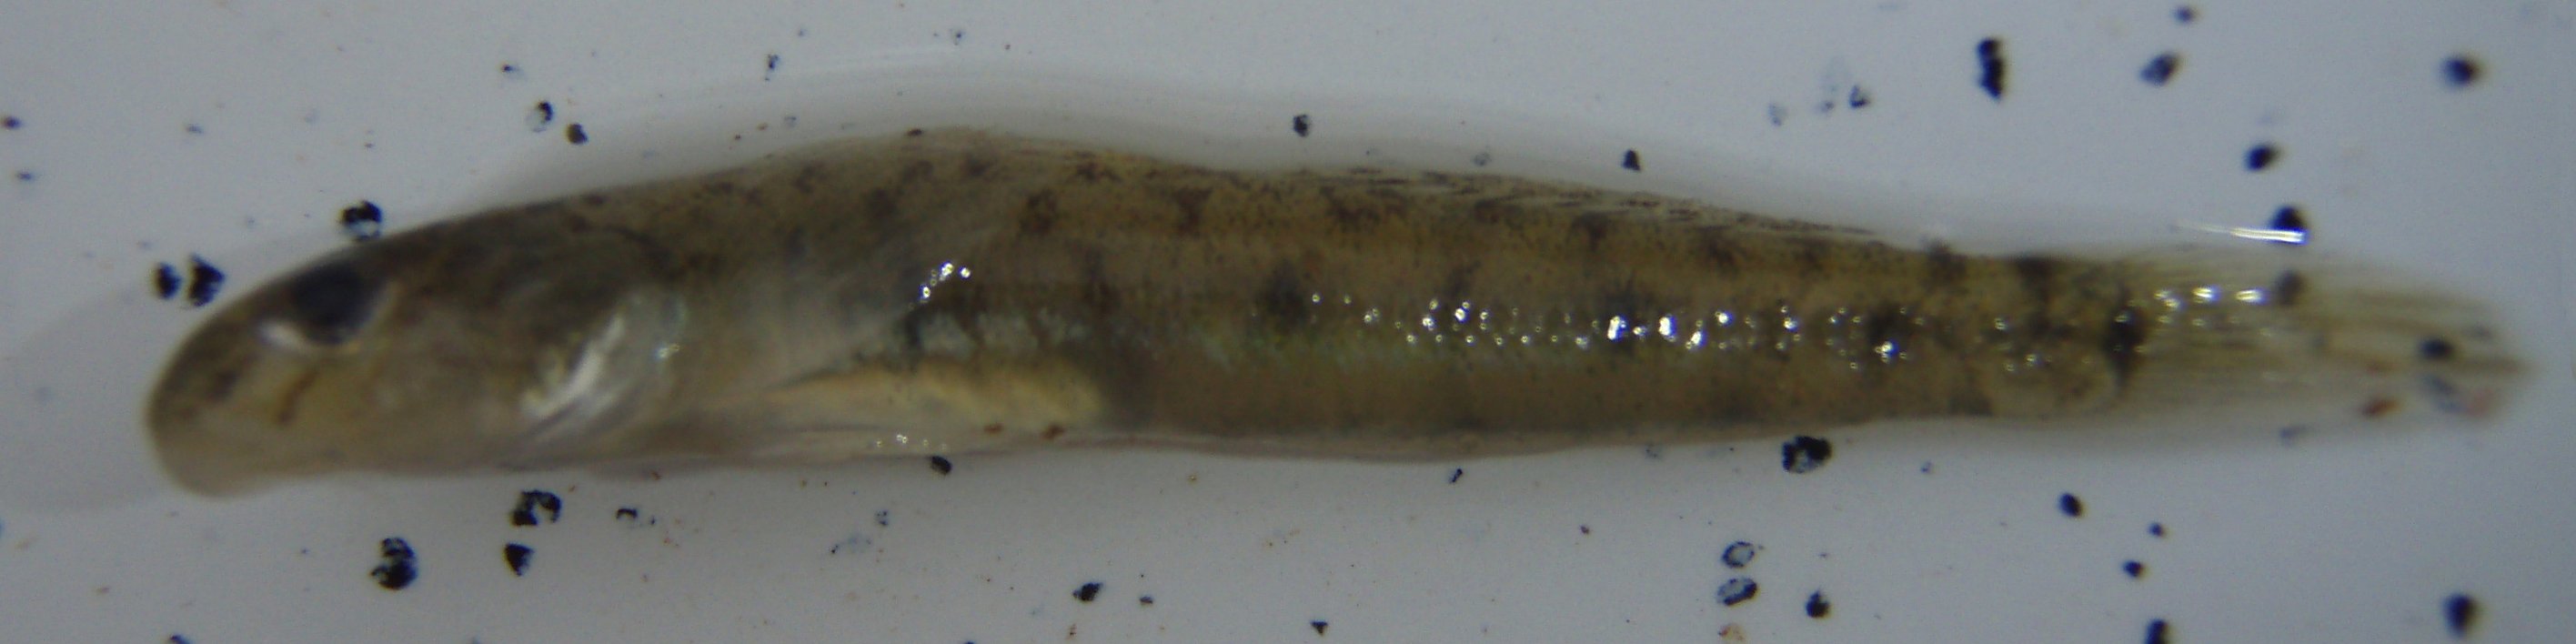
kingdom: Animalia
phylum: Chordata
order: Perciformes
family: Gobiidae
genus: Awaous
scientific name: Awaous lateristriga
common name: West african freshwater goby
